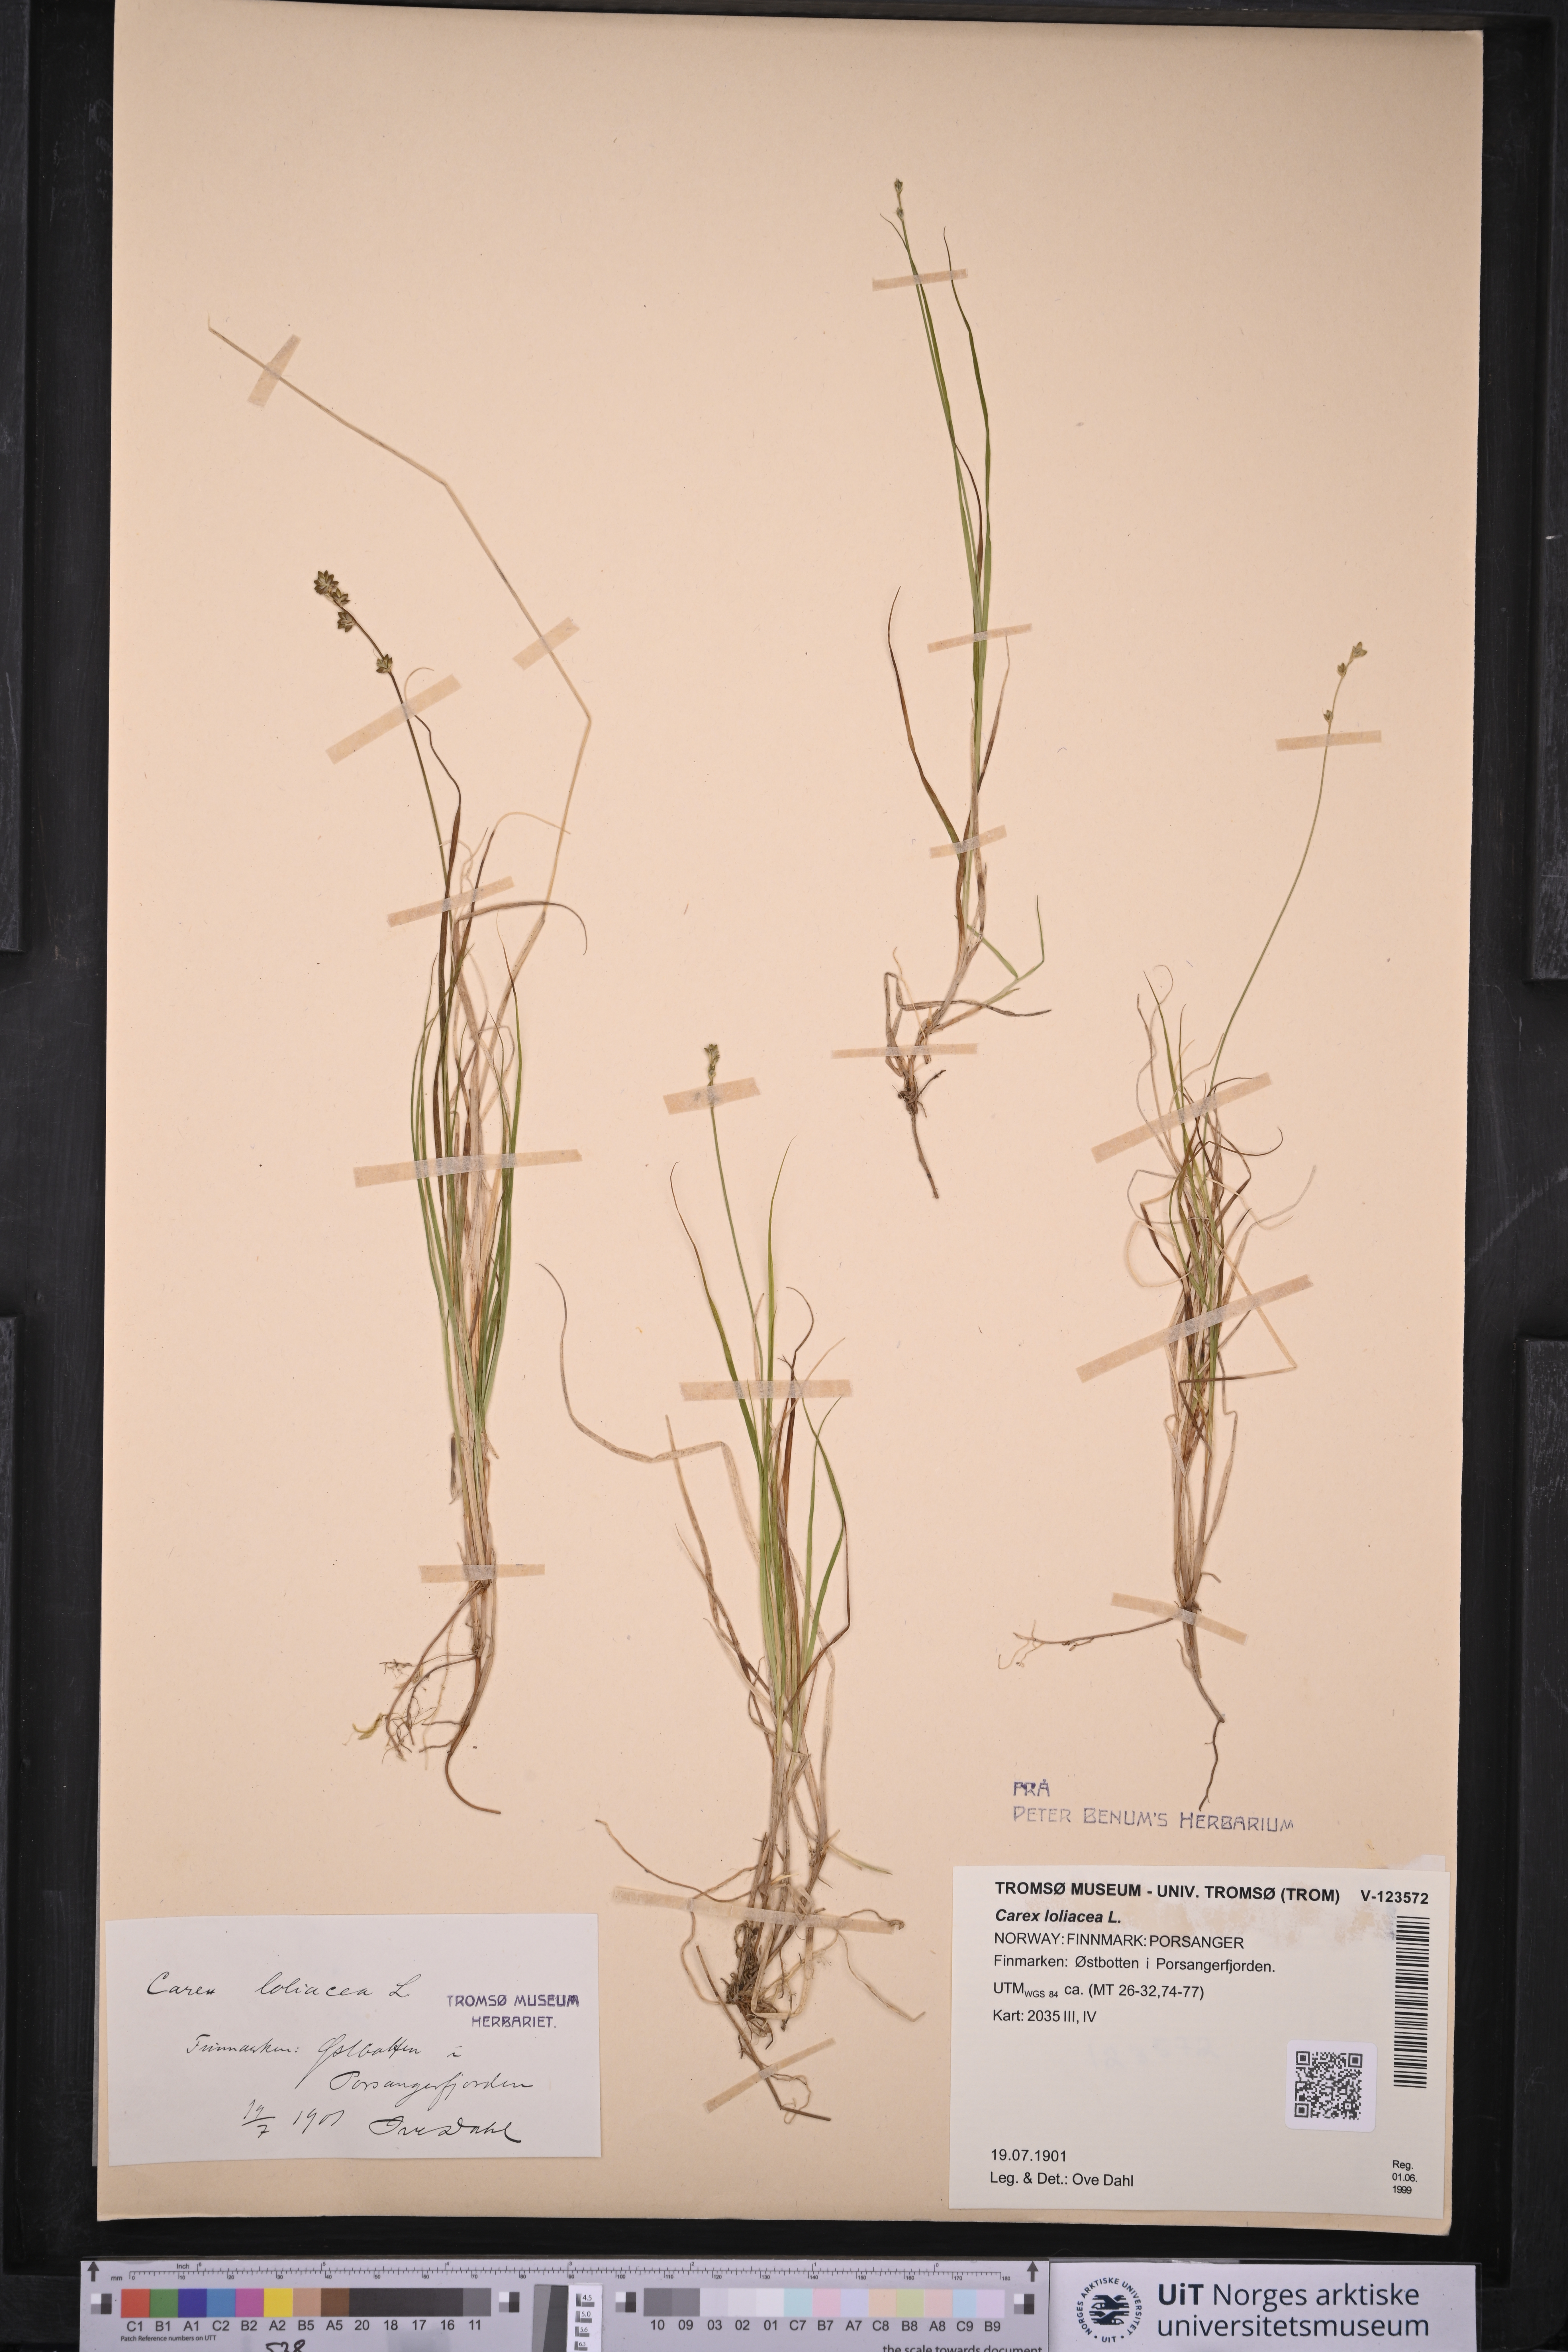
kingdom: Plantae
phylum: Tracheophyta
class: Liliopsida
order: Poales
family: Cyperaceae
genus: Carex
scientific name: Carex loliacea
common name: Ryegrass sedge
